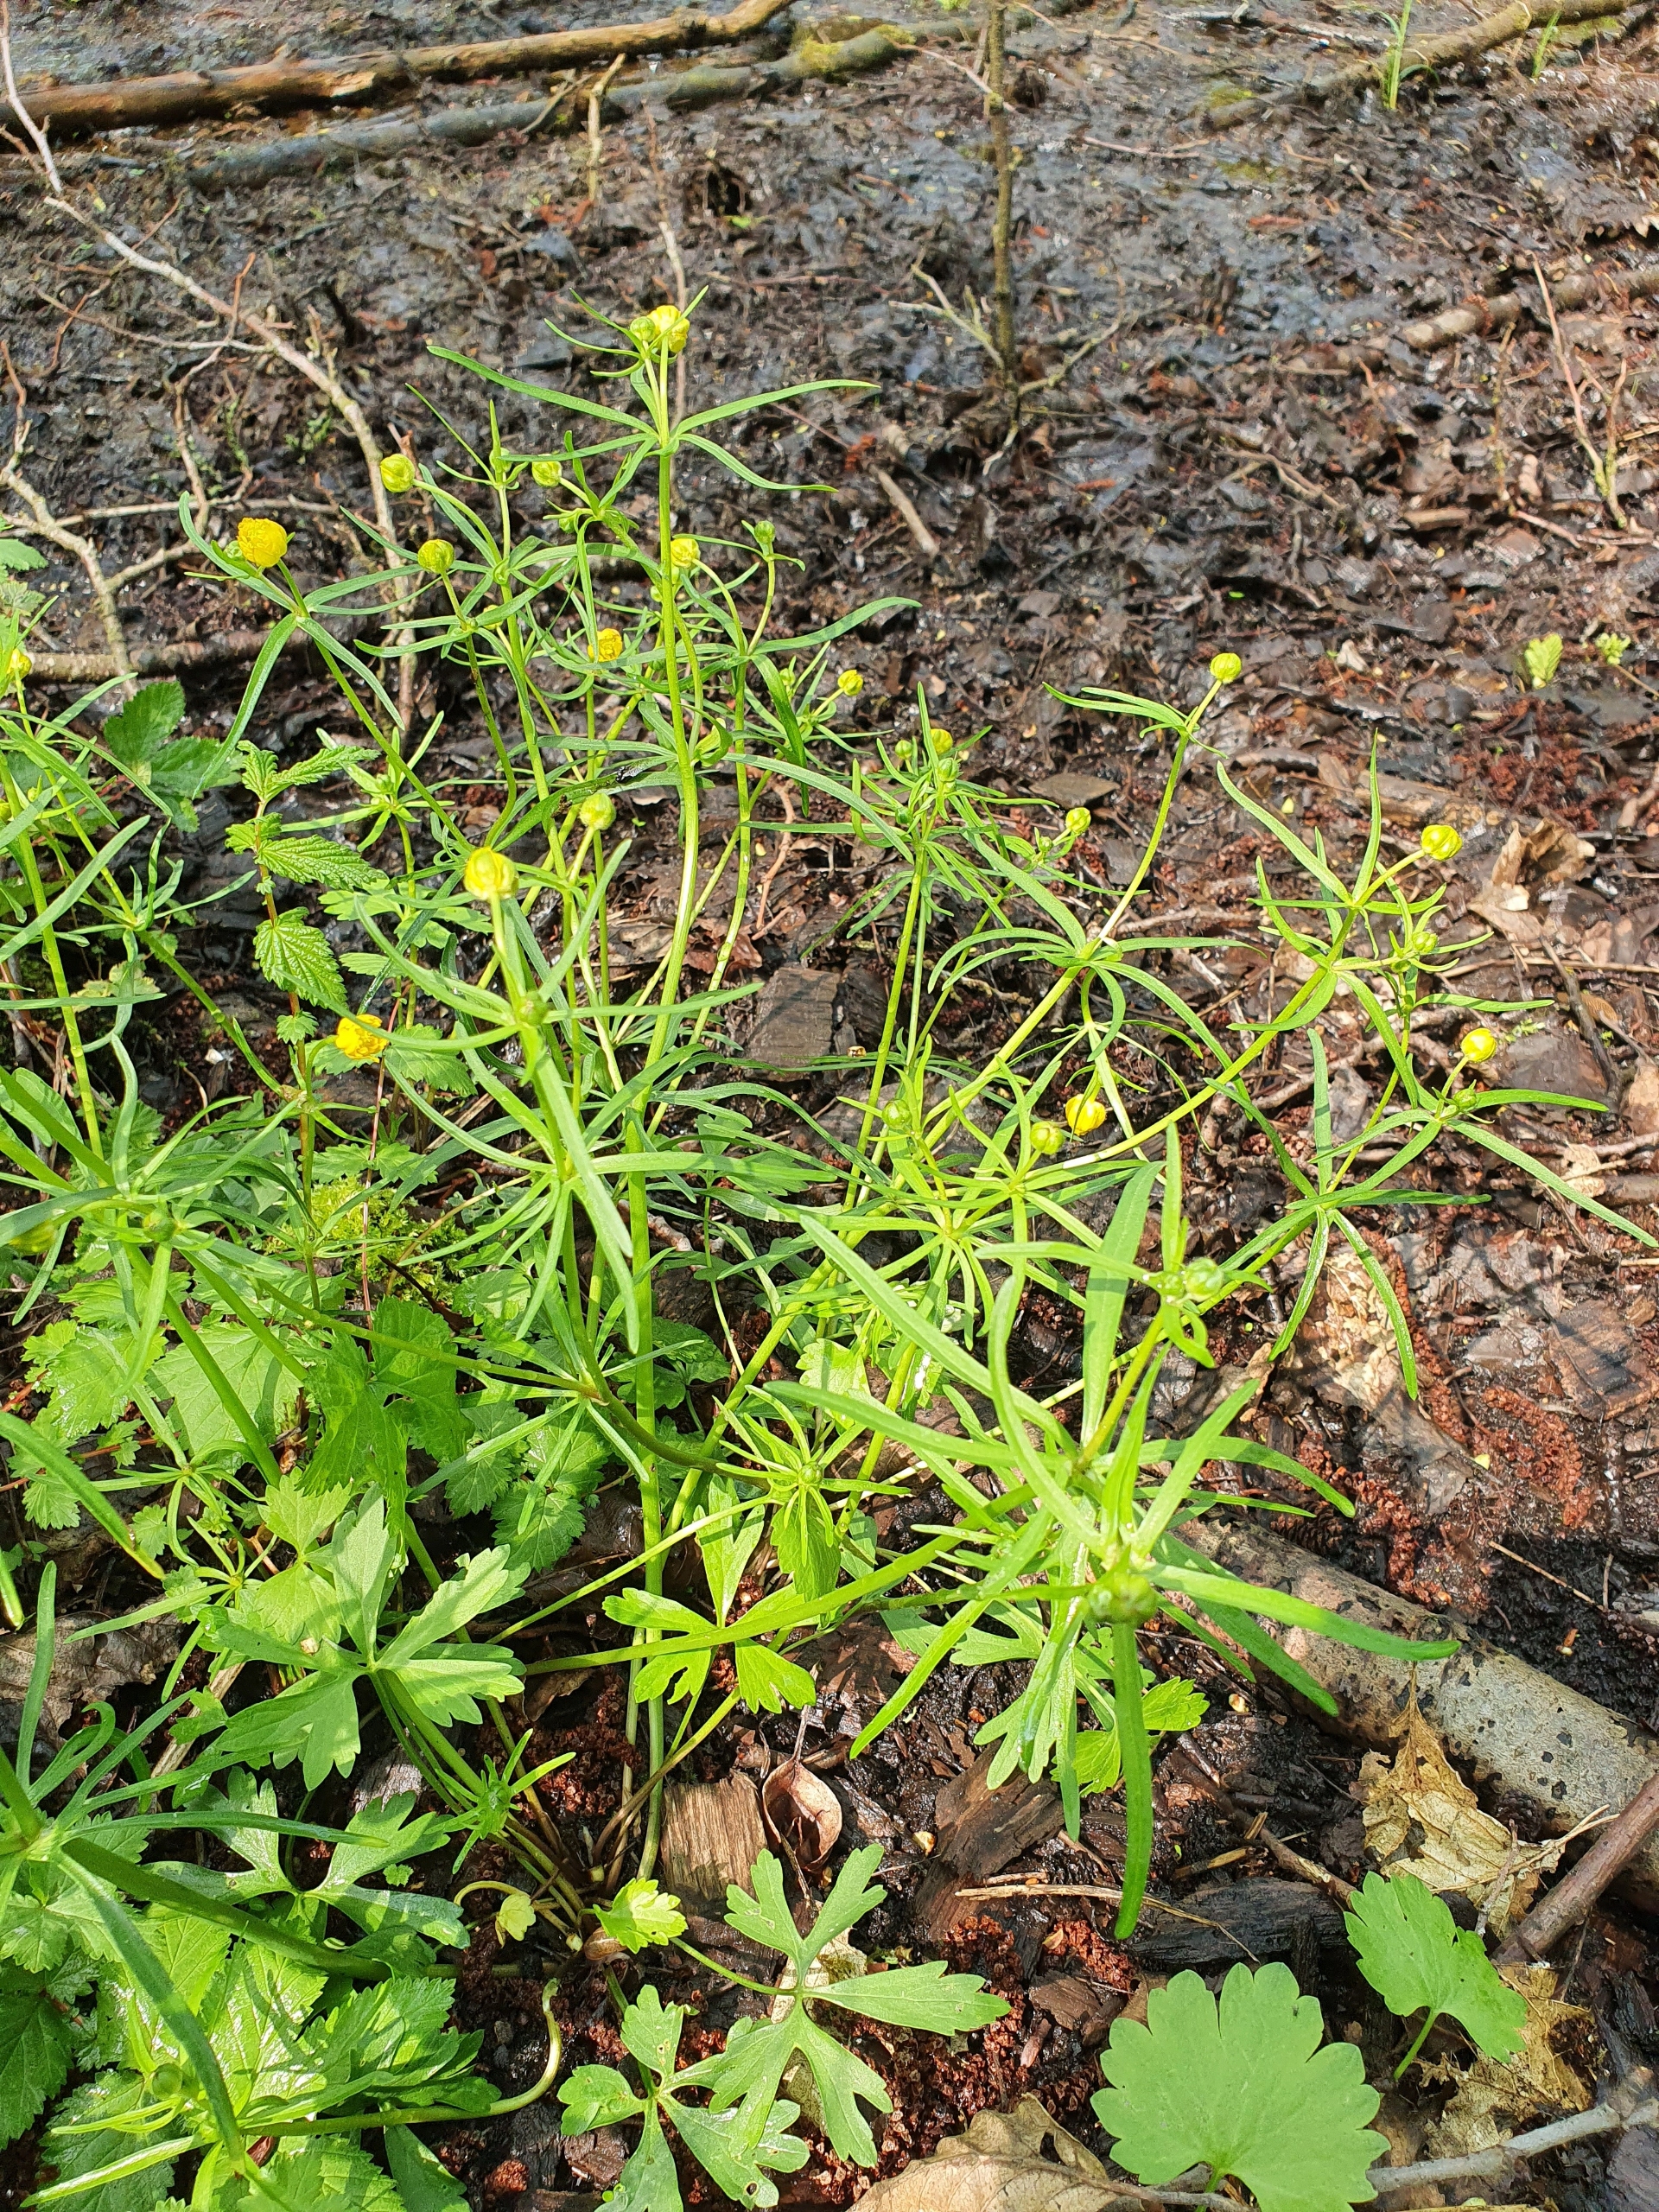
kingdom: Plantae
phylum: Tracheophyta
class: Magnoliopsida
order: Ranunculales
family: Ranunculaceae
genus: Ranunculus
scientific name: Ranunculus auricomus
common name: Nyrebladet ranunkel
